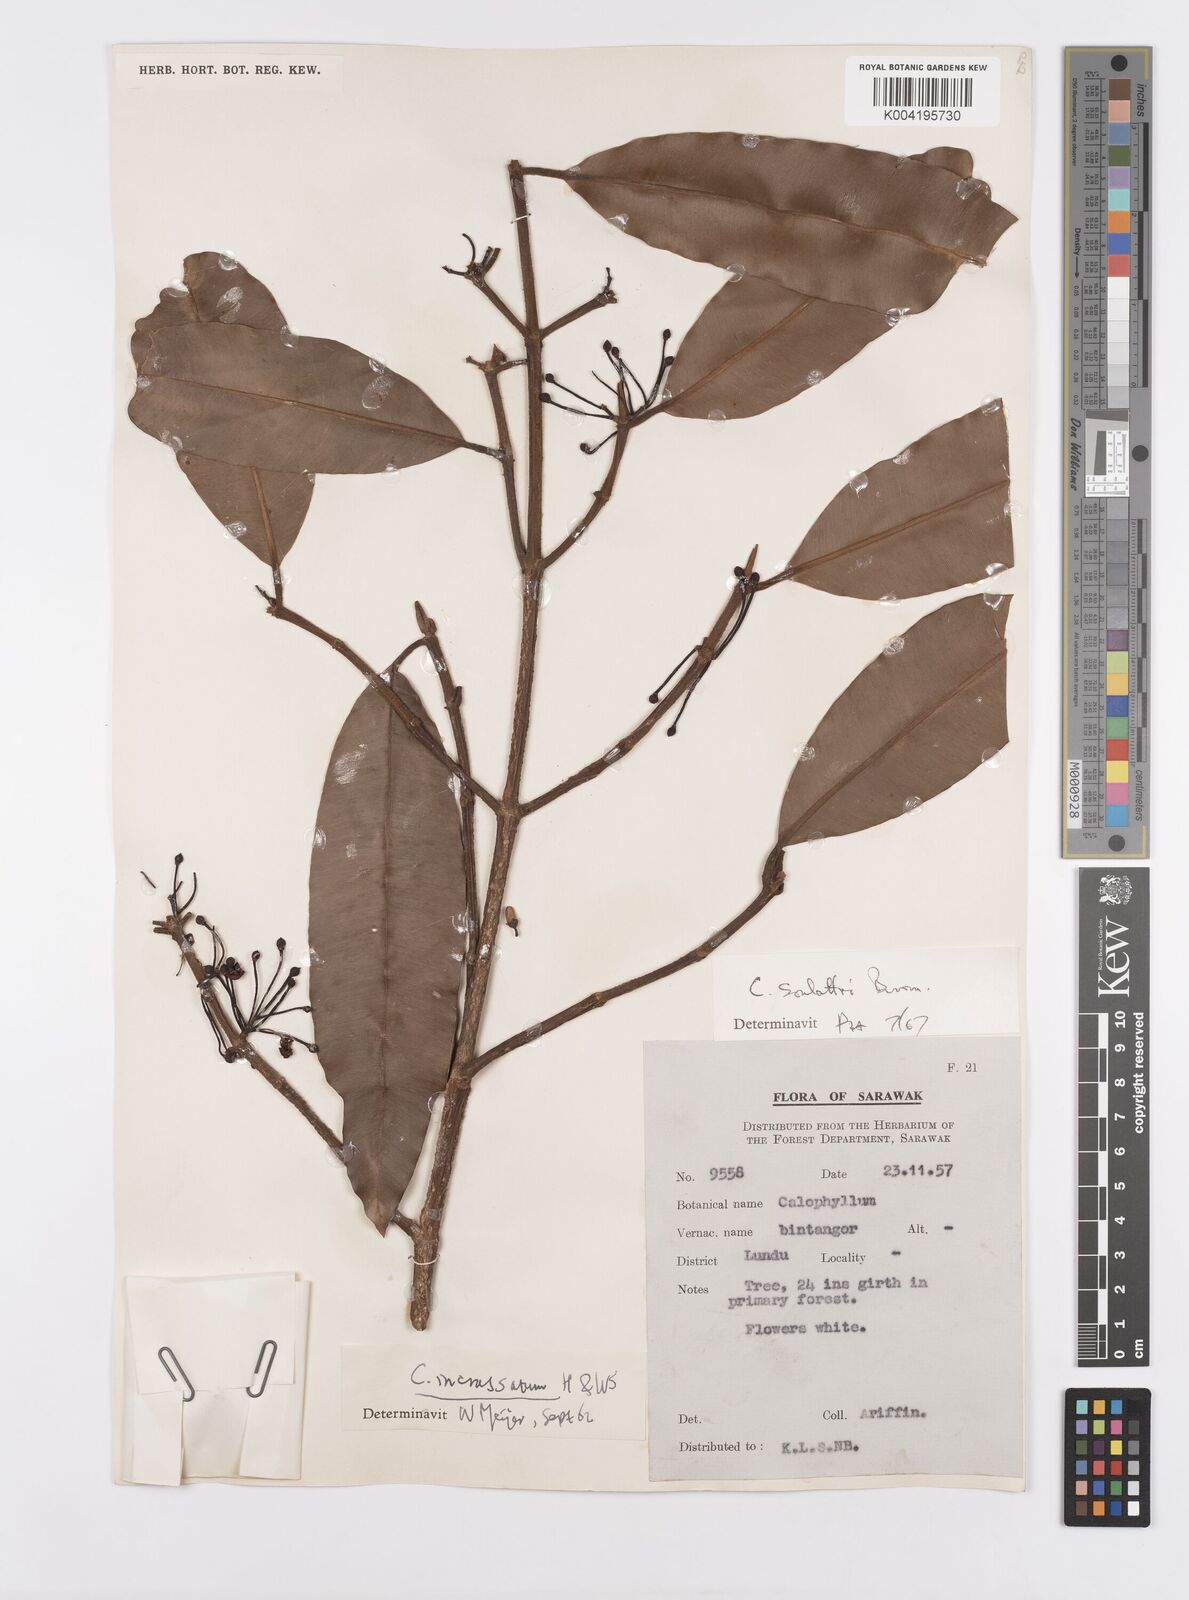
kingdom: Plantae
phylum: Tracheophyta
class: Magnoliopsida
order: Malpighiales
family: Calophyllaceae
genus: Calophyllum
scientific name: Calophyllum soulattri
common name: Bitangoor boonot
